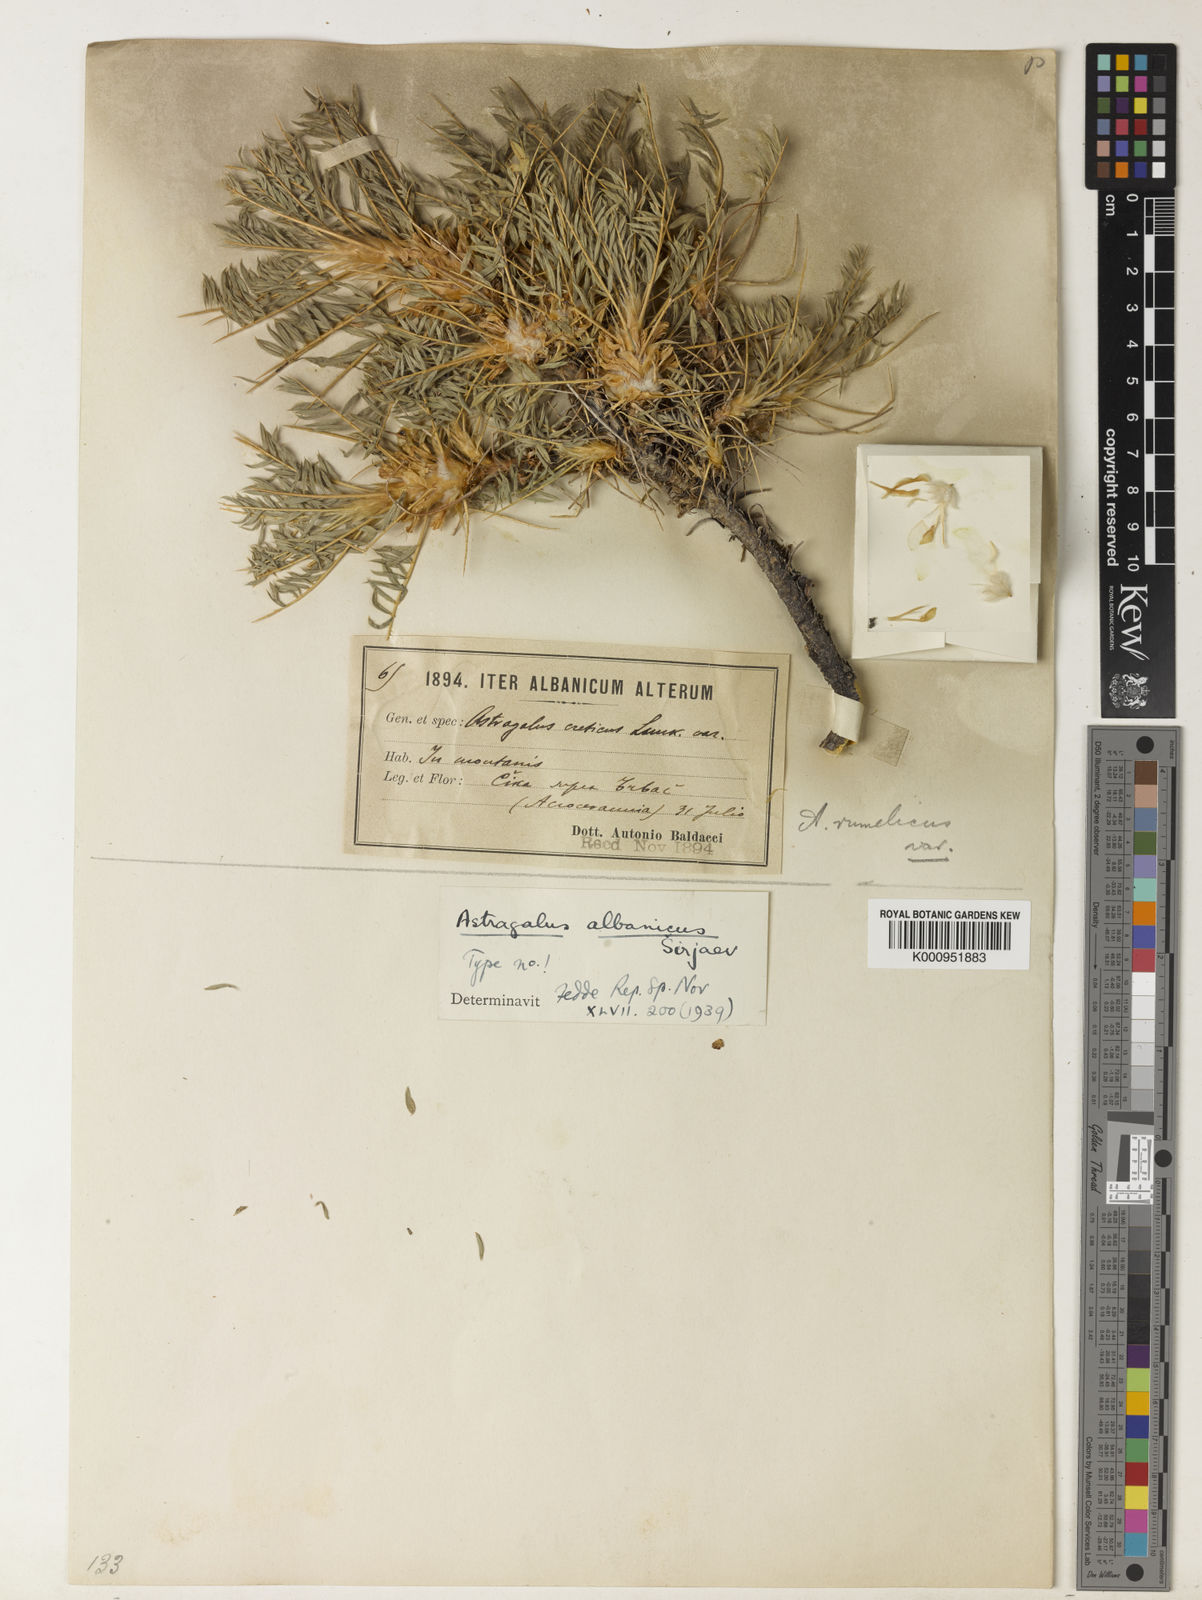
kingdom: Plantae
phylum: Tracheophyta
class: Magnoliopsida
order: Fabales
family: Fabaceae
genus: Astragalus
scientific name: Astragalus
